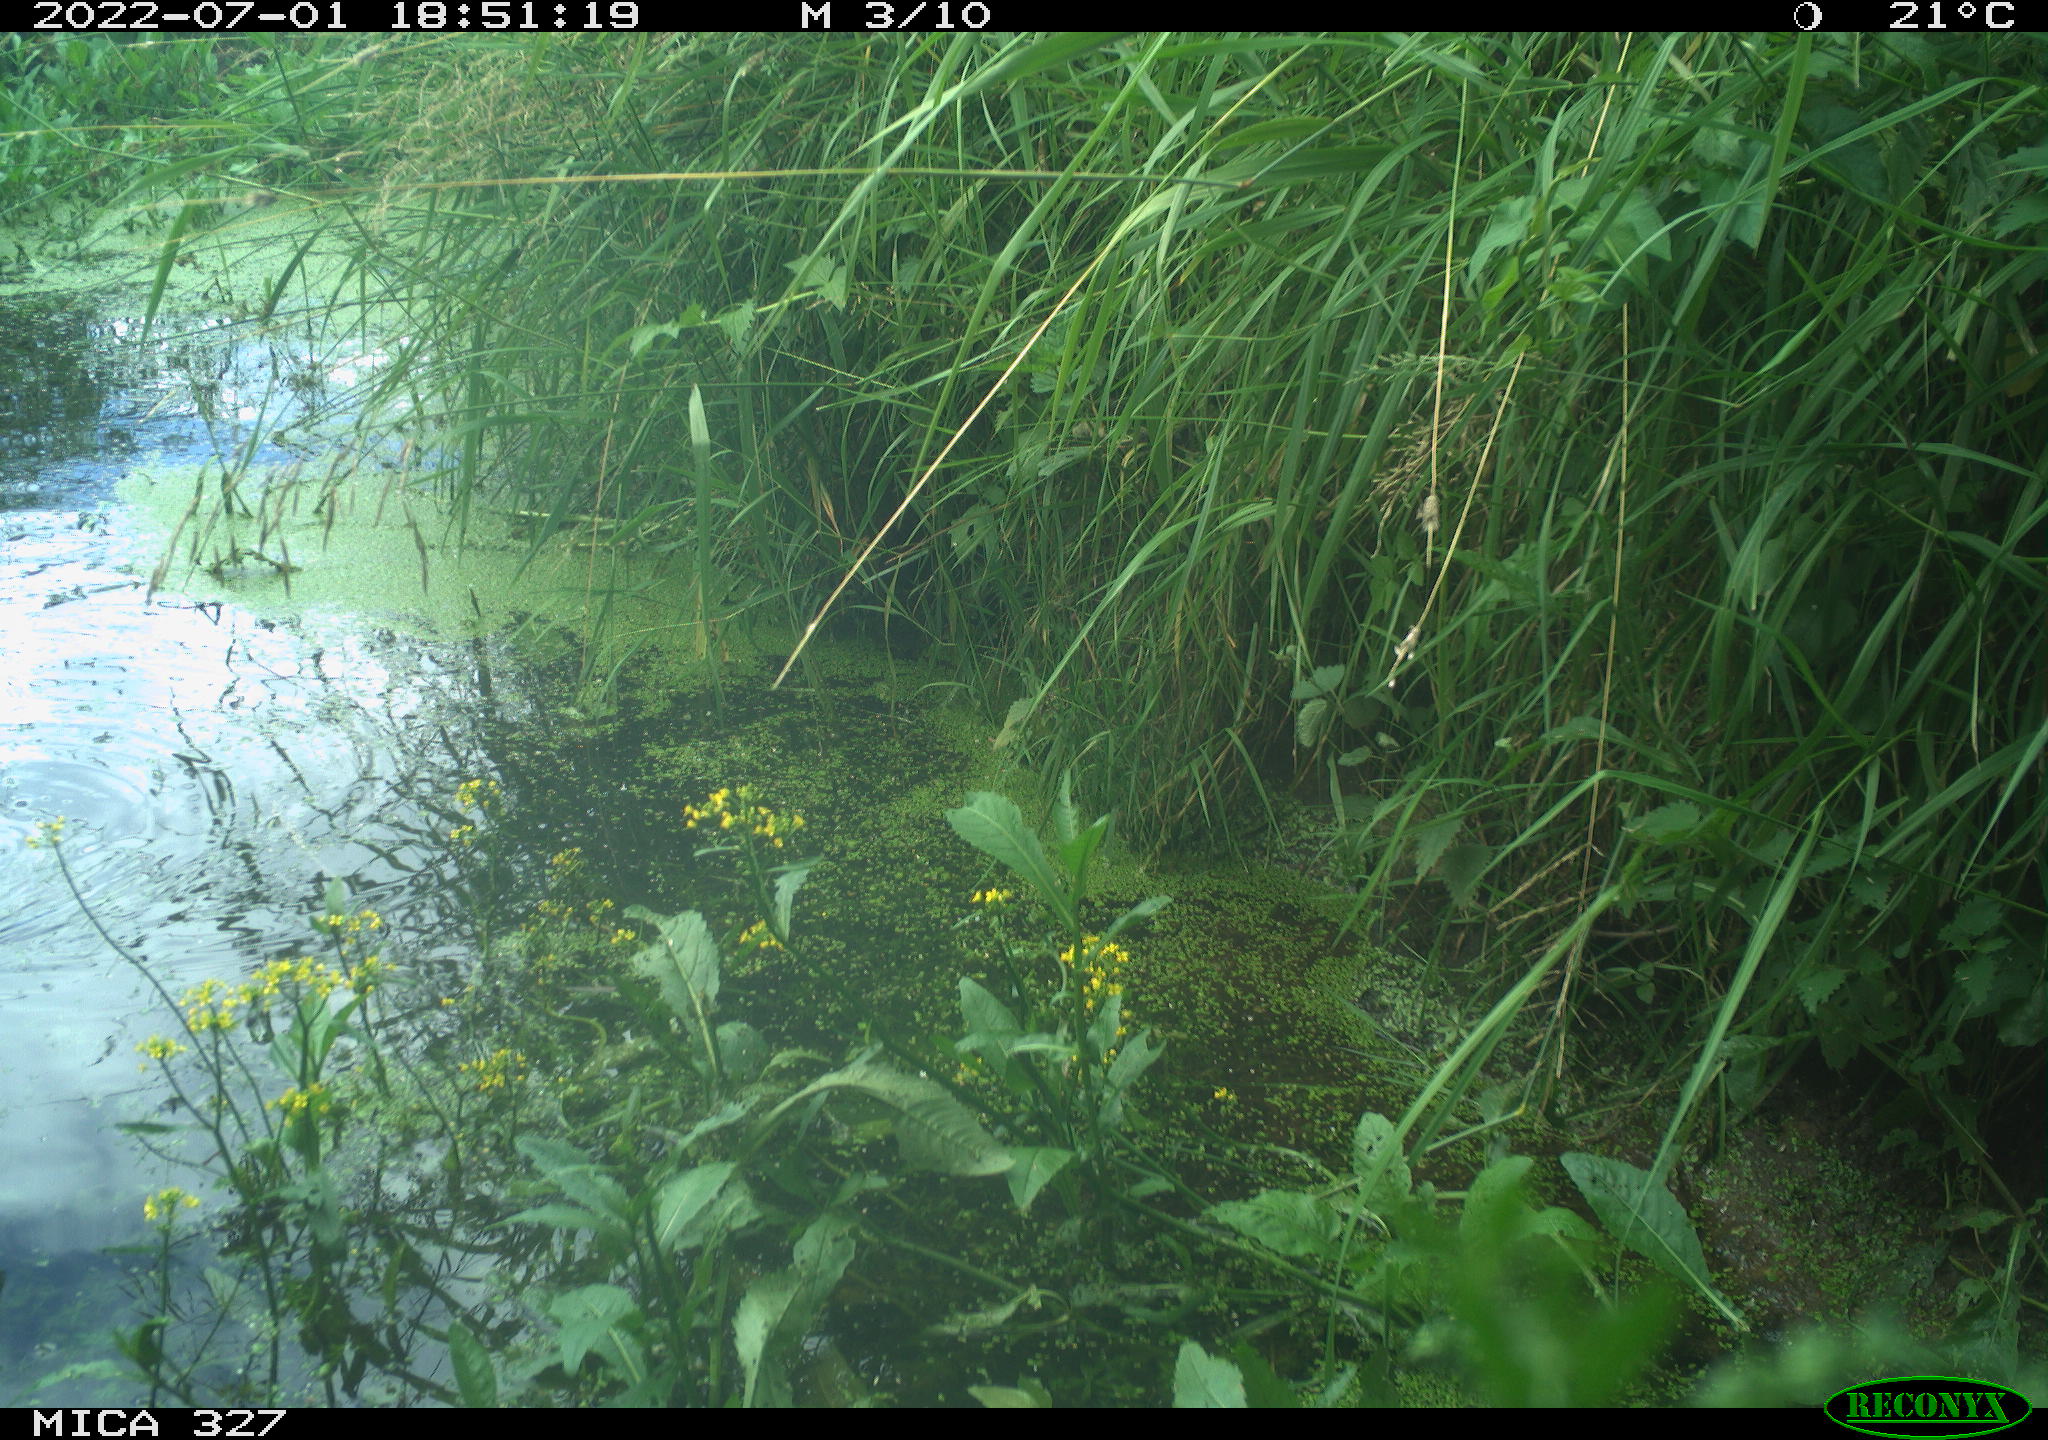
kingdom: Animalia
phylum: Chordata
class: Aves
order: Gruiformes
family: Rallidae
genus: Gallinula
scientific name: Gallinula chloropus
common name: Common moorhen
